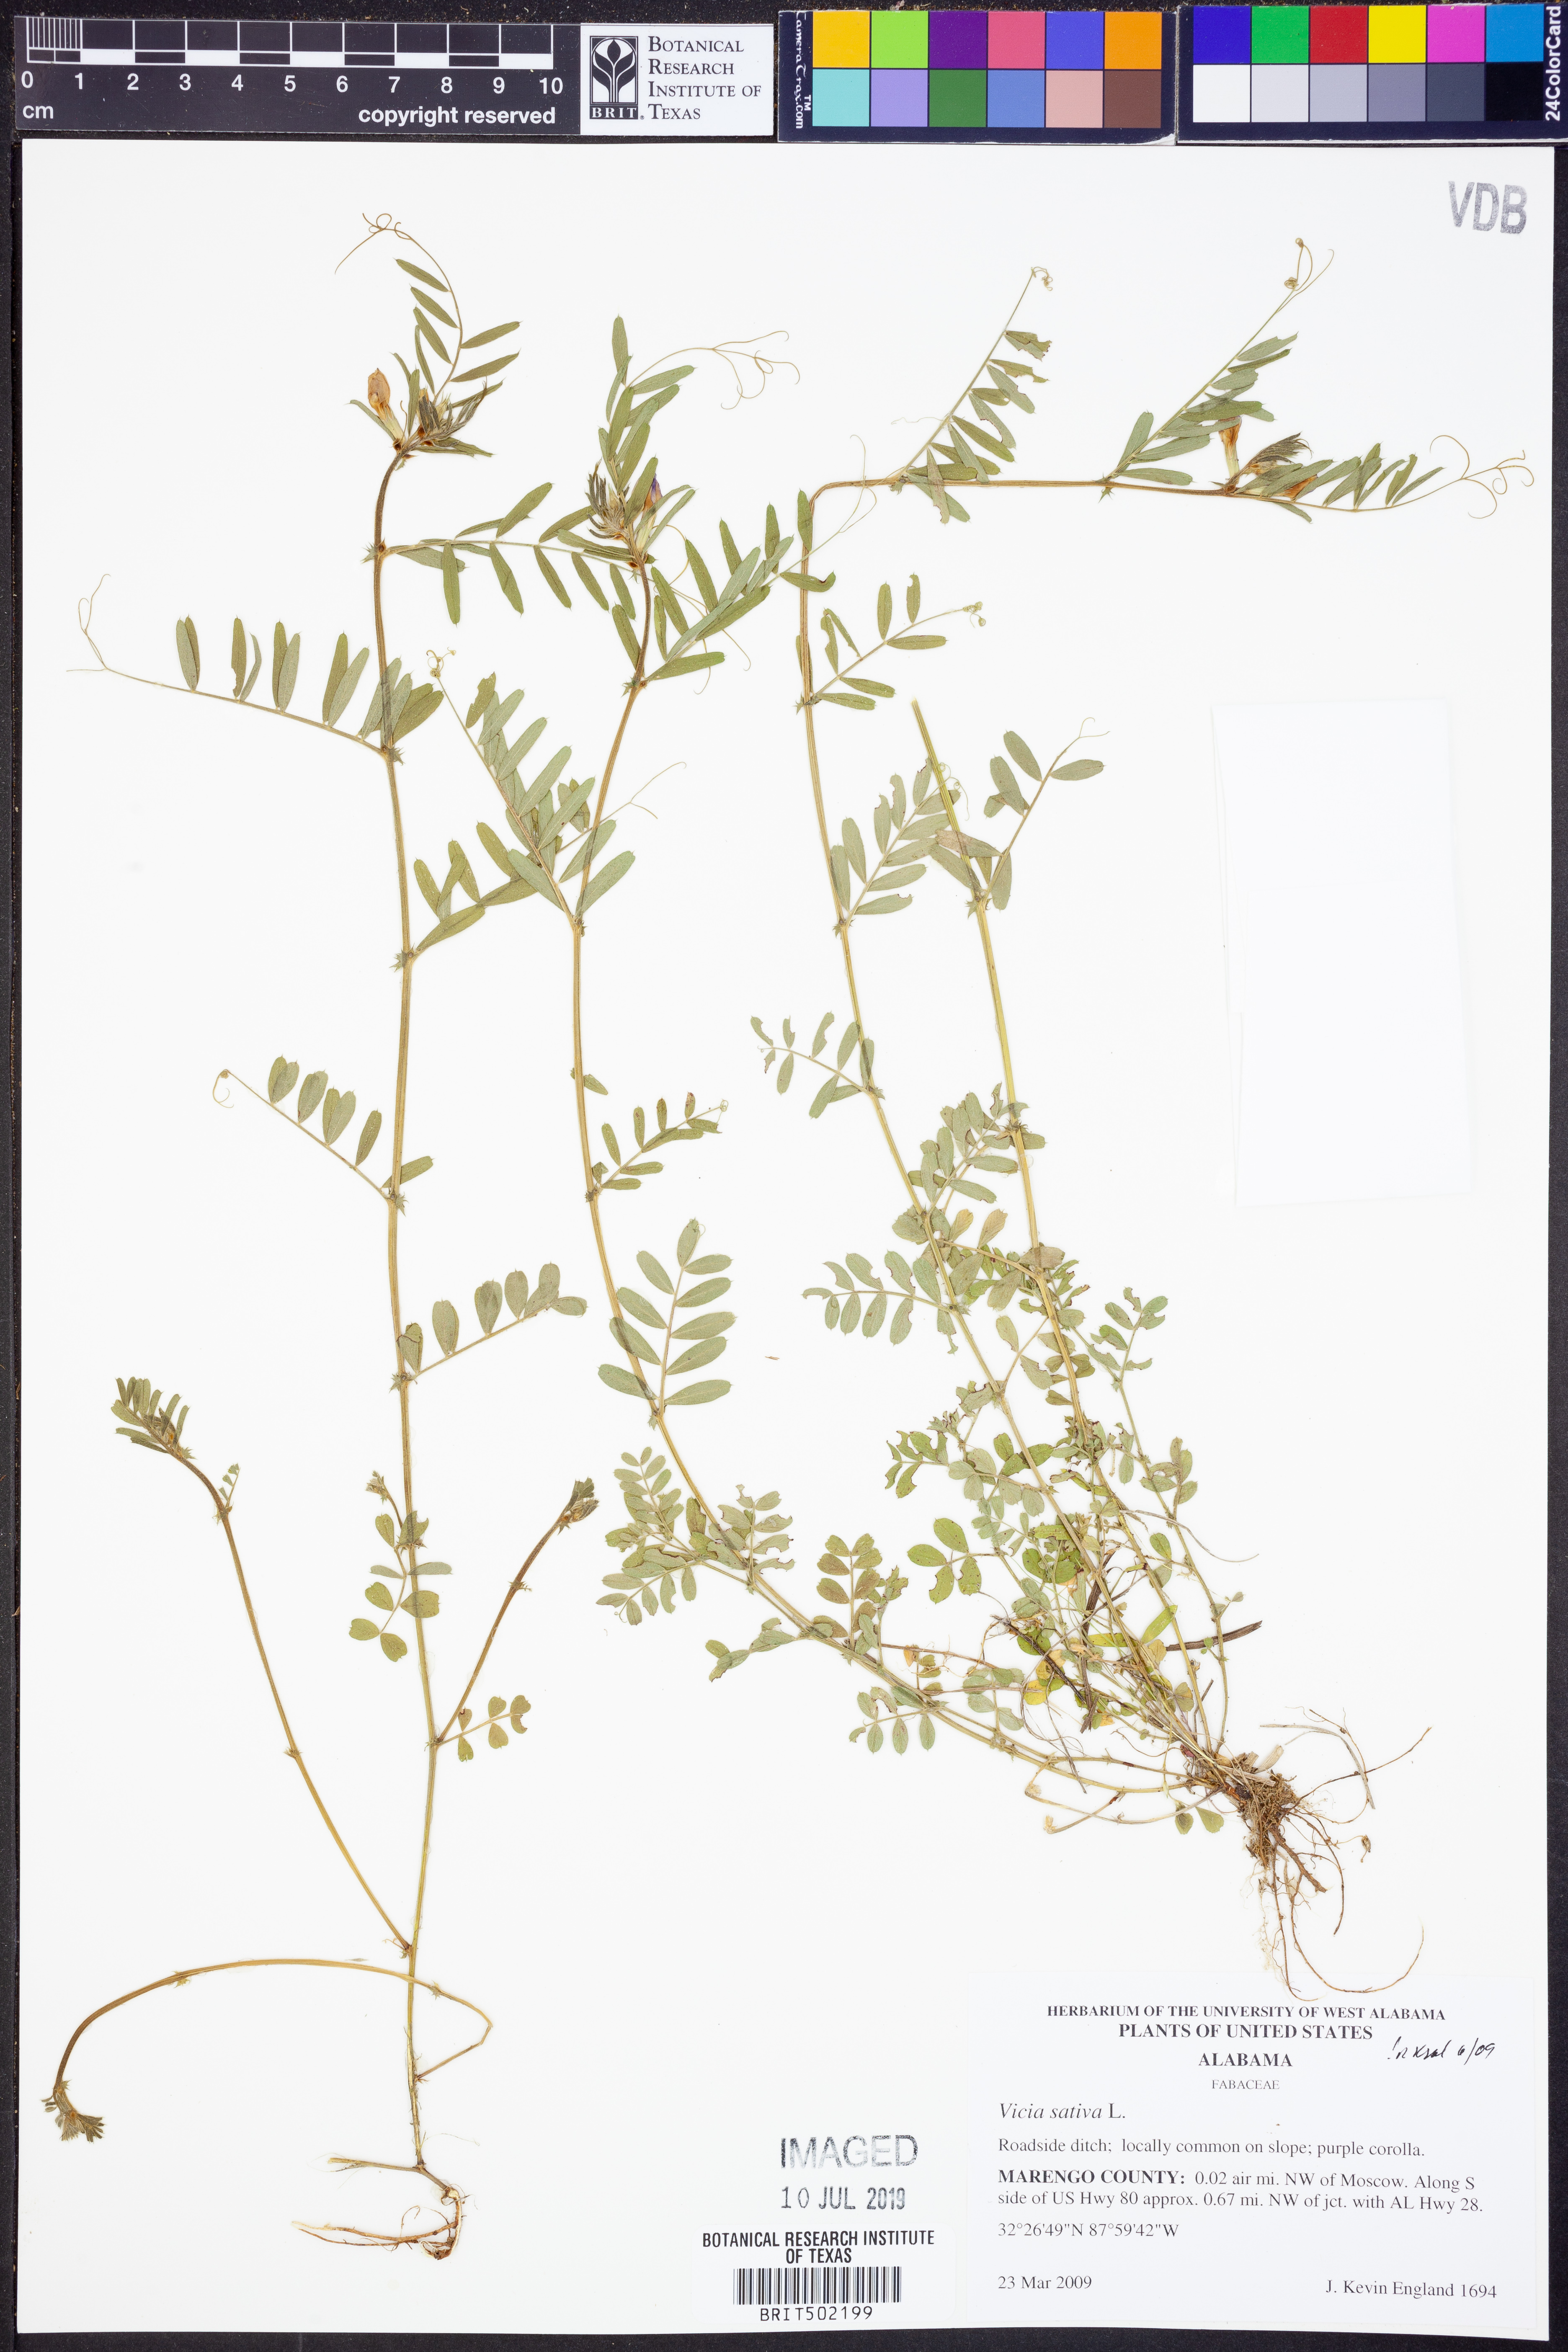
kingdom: Plantae
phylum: Tracheophyta
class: Magnoliopsida
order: Fabales
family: Fabaceae
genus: Vicia
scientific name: Vicia sativa
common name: Garden vetch
